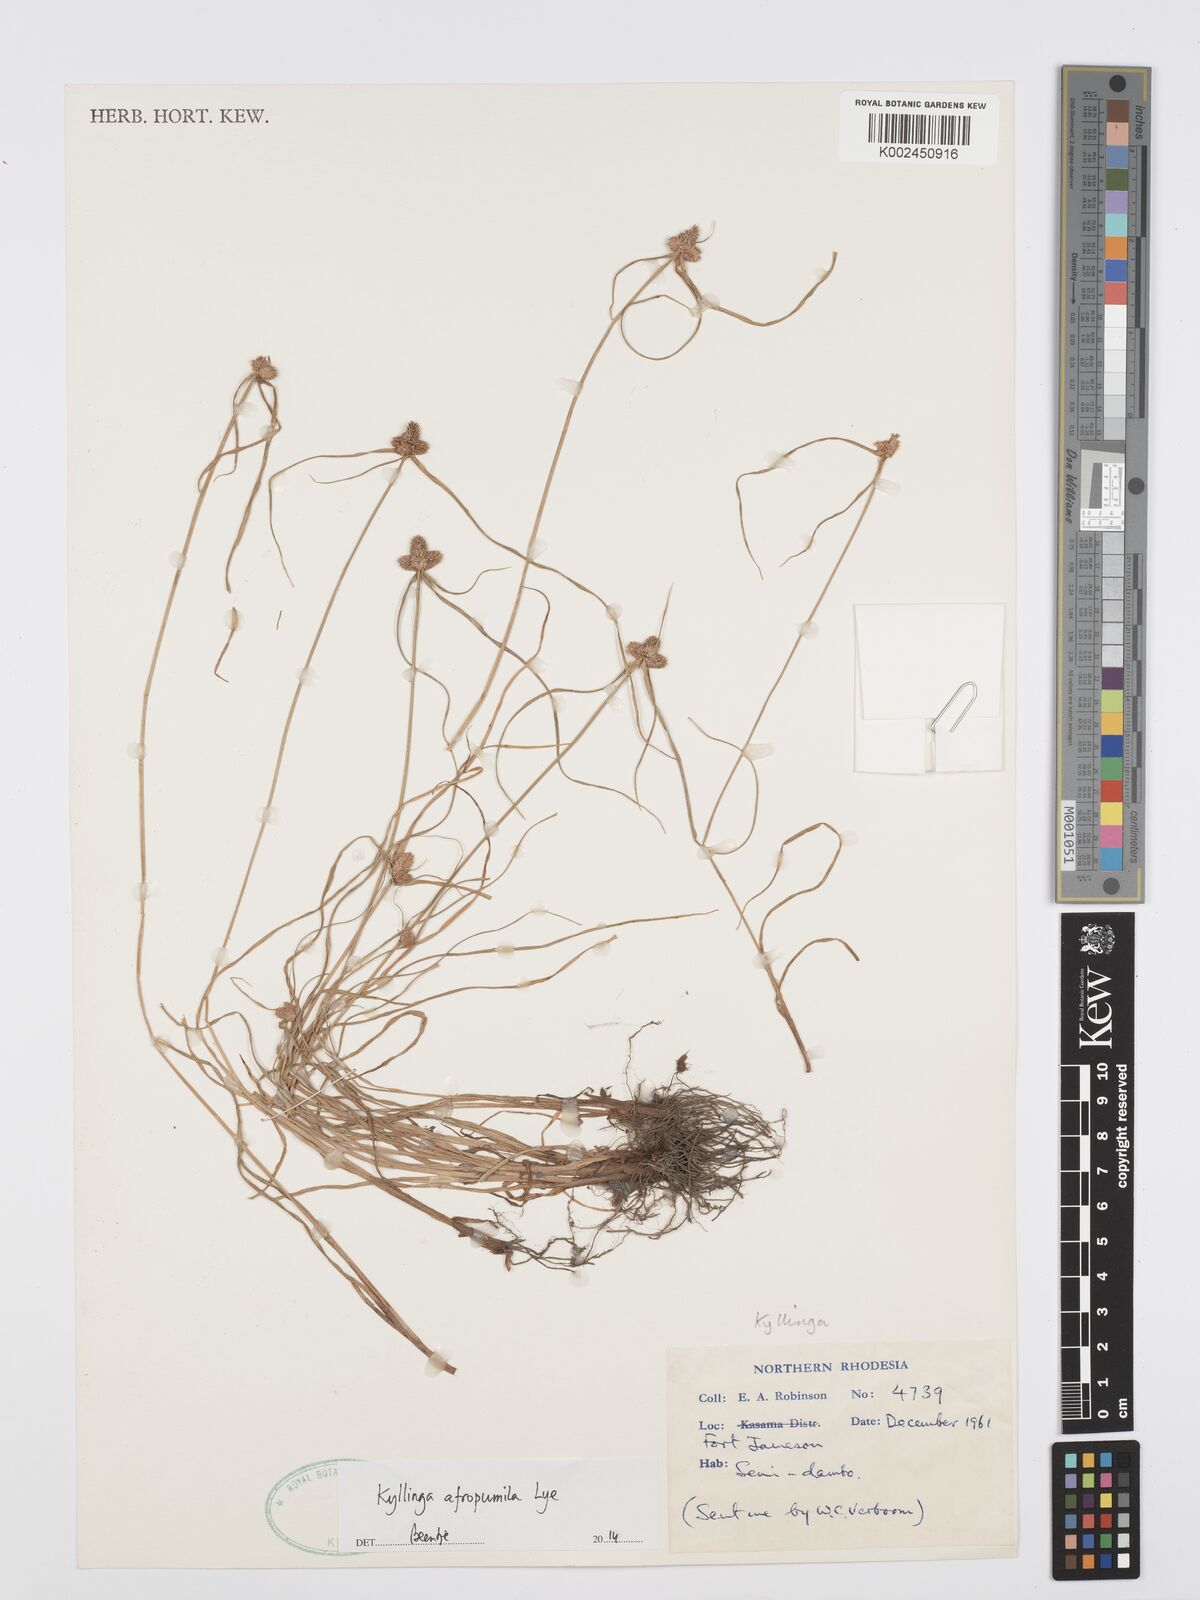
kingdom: Plantae
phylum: Tracheophyta
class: Liliopsida
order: Poales
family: Cyperaceae
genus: Cyperus
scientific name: Cyperus afropumilus
